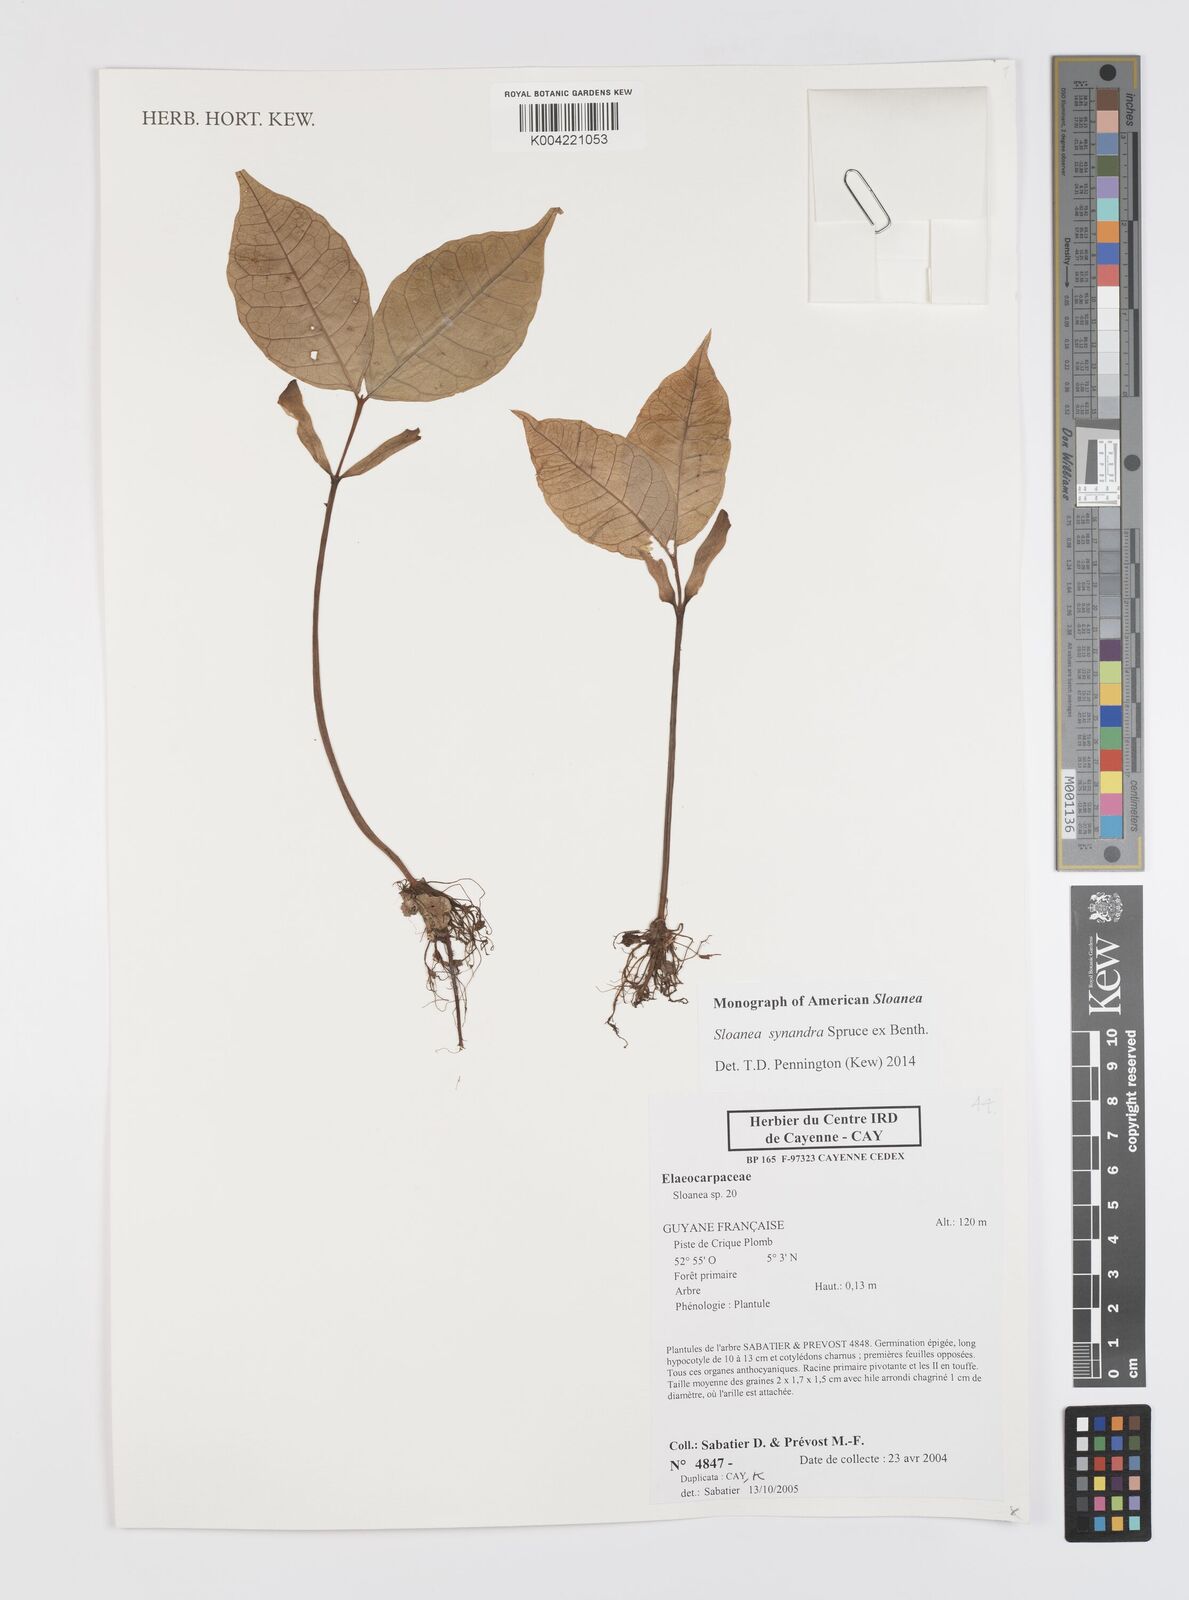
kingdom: Plantae
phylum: Tracheophyta
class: Magnoliopsida
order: Oxalidales
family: Elaeocarpaceae
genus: Sloanea
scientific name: Sloanea synandra
